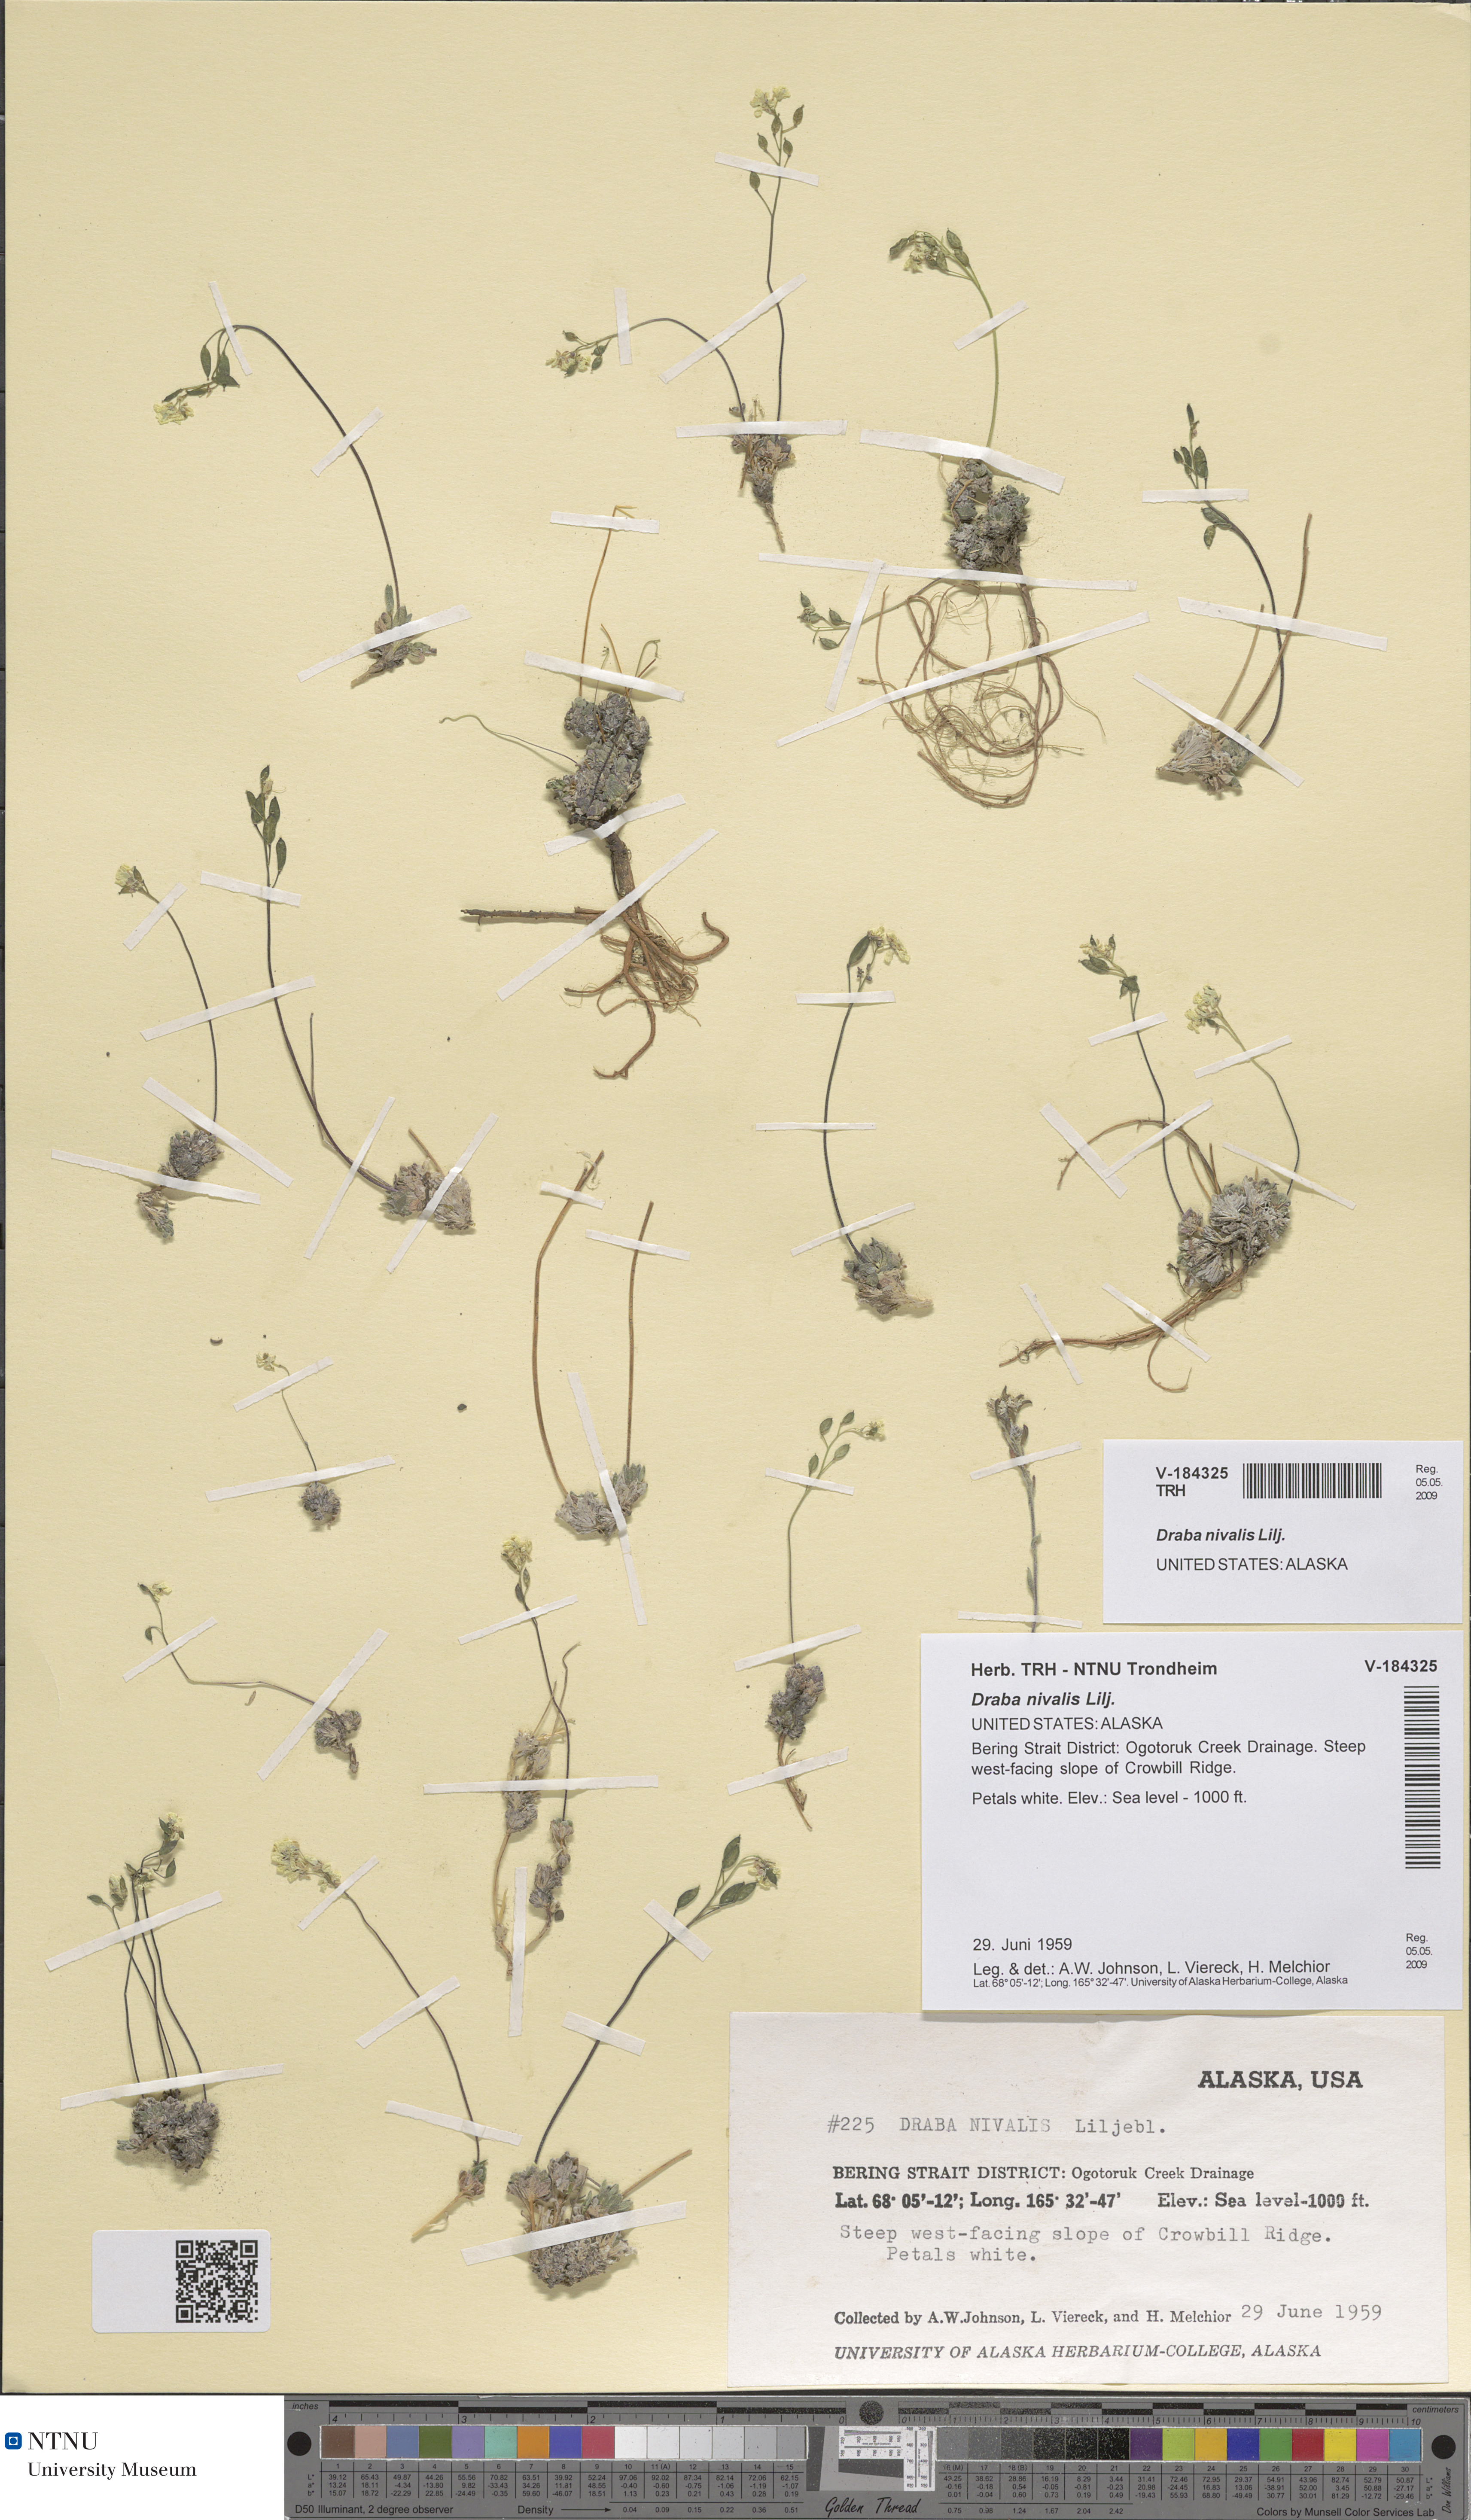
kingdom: Plantae
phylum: Tracheophyta
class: Magnoliopsida
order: Brassicales
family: Brassicaceae
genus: Draba
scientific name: Draba nivalis
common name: Snow draba
